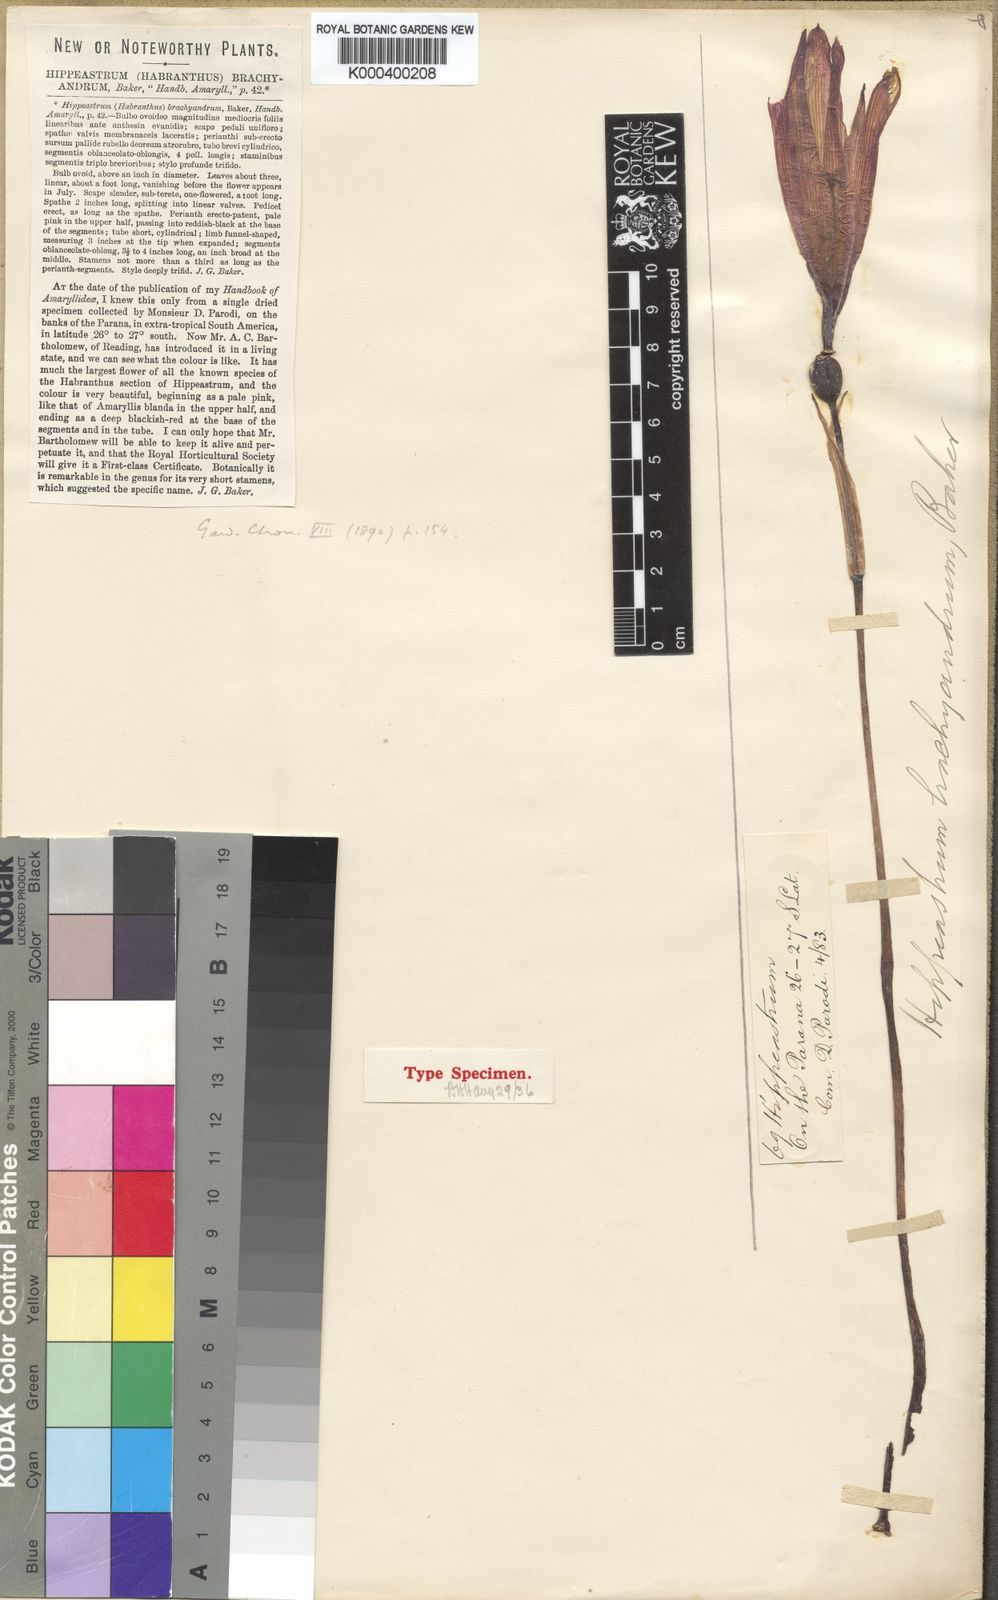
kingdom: Plantae
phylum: Tracheophyta
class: Liliopsida
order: Asparagales
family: Amaryllidaceae
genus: Zephyranthes
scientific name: Zephyranthes brachyandra
